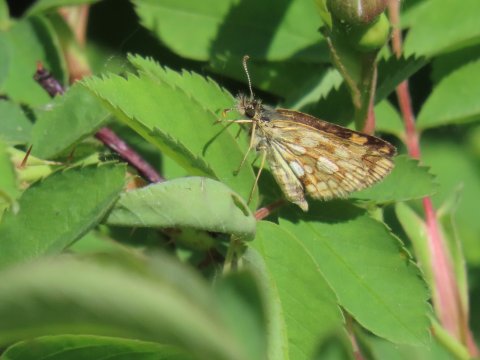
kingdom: Animalia
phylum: Arthropoda
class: Insecta
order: Lepidoptera
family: Hesperiidae
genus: Carterocephalus
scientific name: Carterocephalus palaemon
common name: Chequered Skipper
